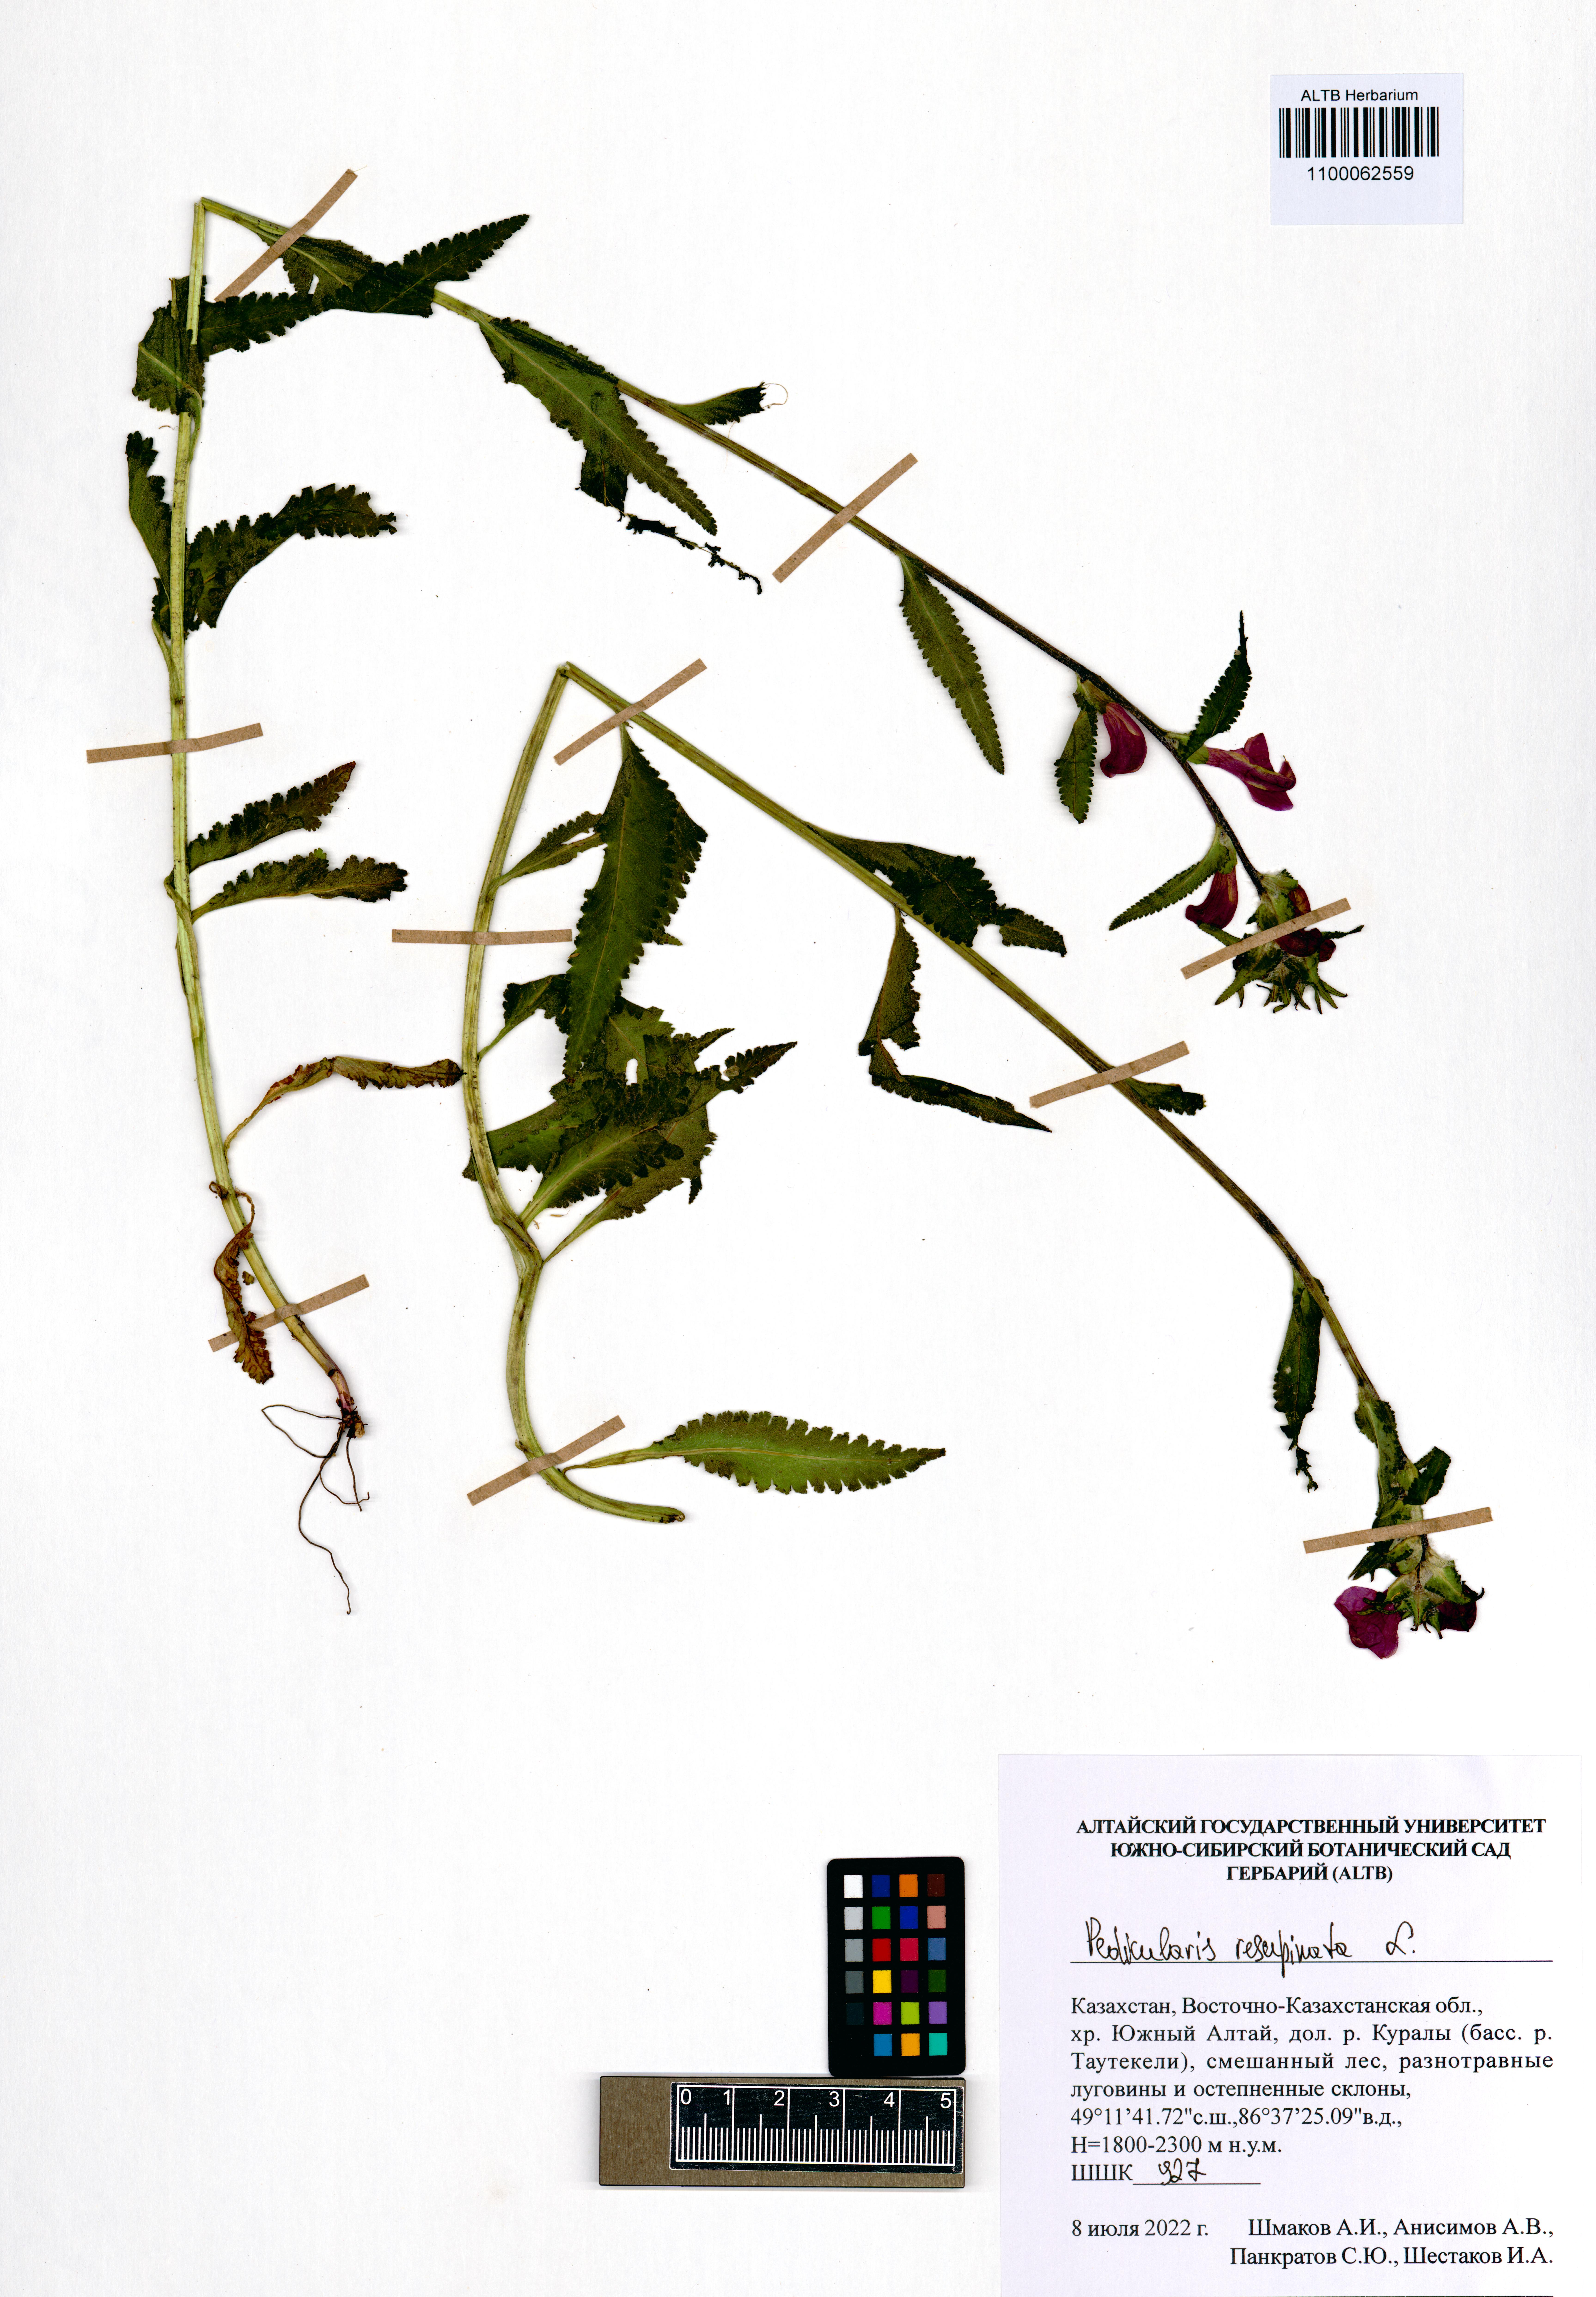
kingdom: Plantae
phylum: Tracheophyta
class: Magnoliopsida
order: Lamiales
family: Orobanchaceae
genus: Pedicularis
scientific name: Pedicularis resupinata
